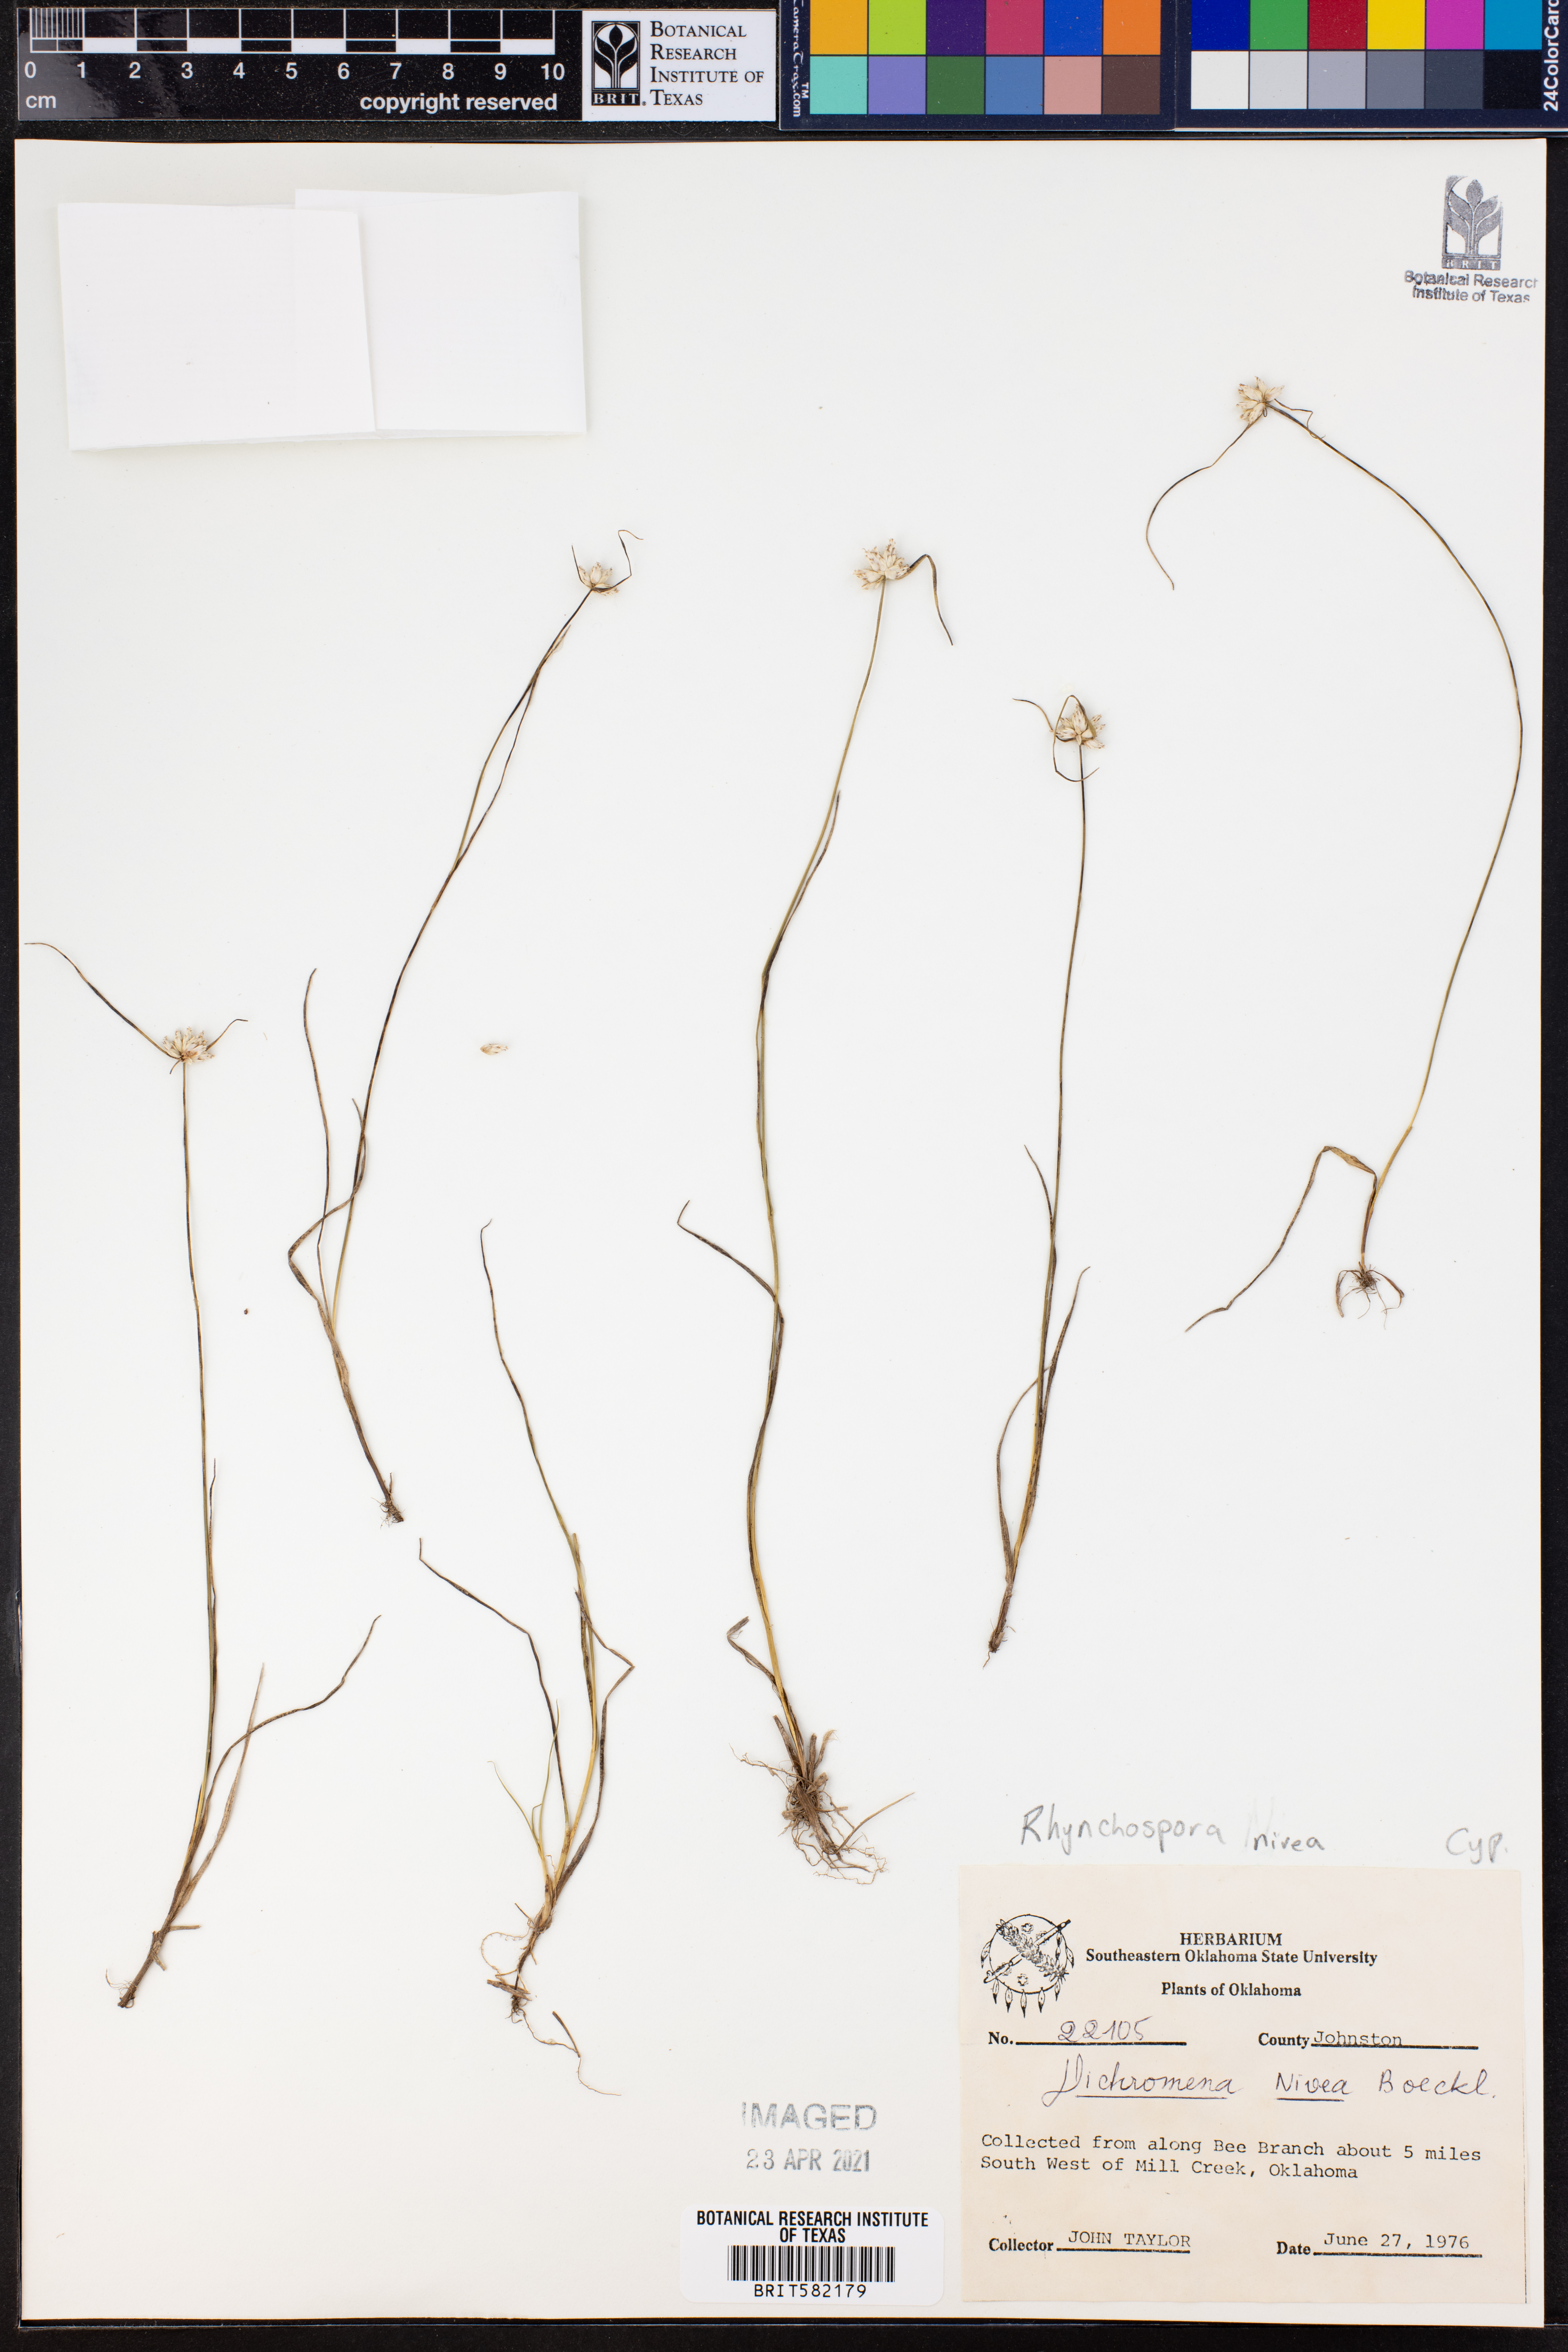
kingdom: Plantae
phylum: Tracheophyta
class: Liliopsida
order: Poales
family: Cyperaceae
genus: Rhynchospora
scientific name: Rhynchospora nivea
